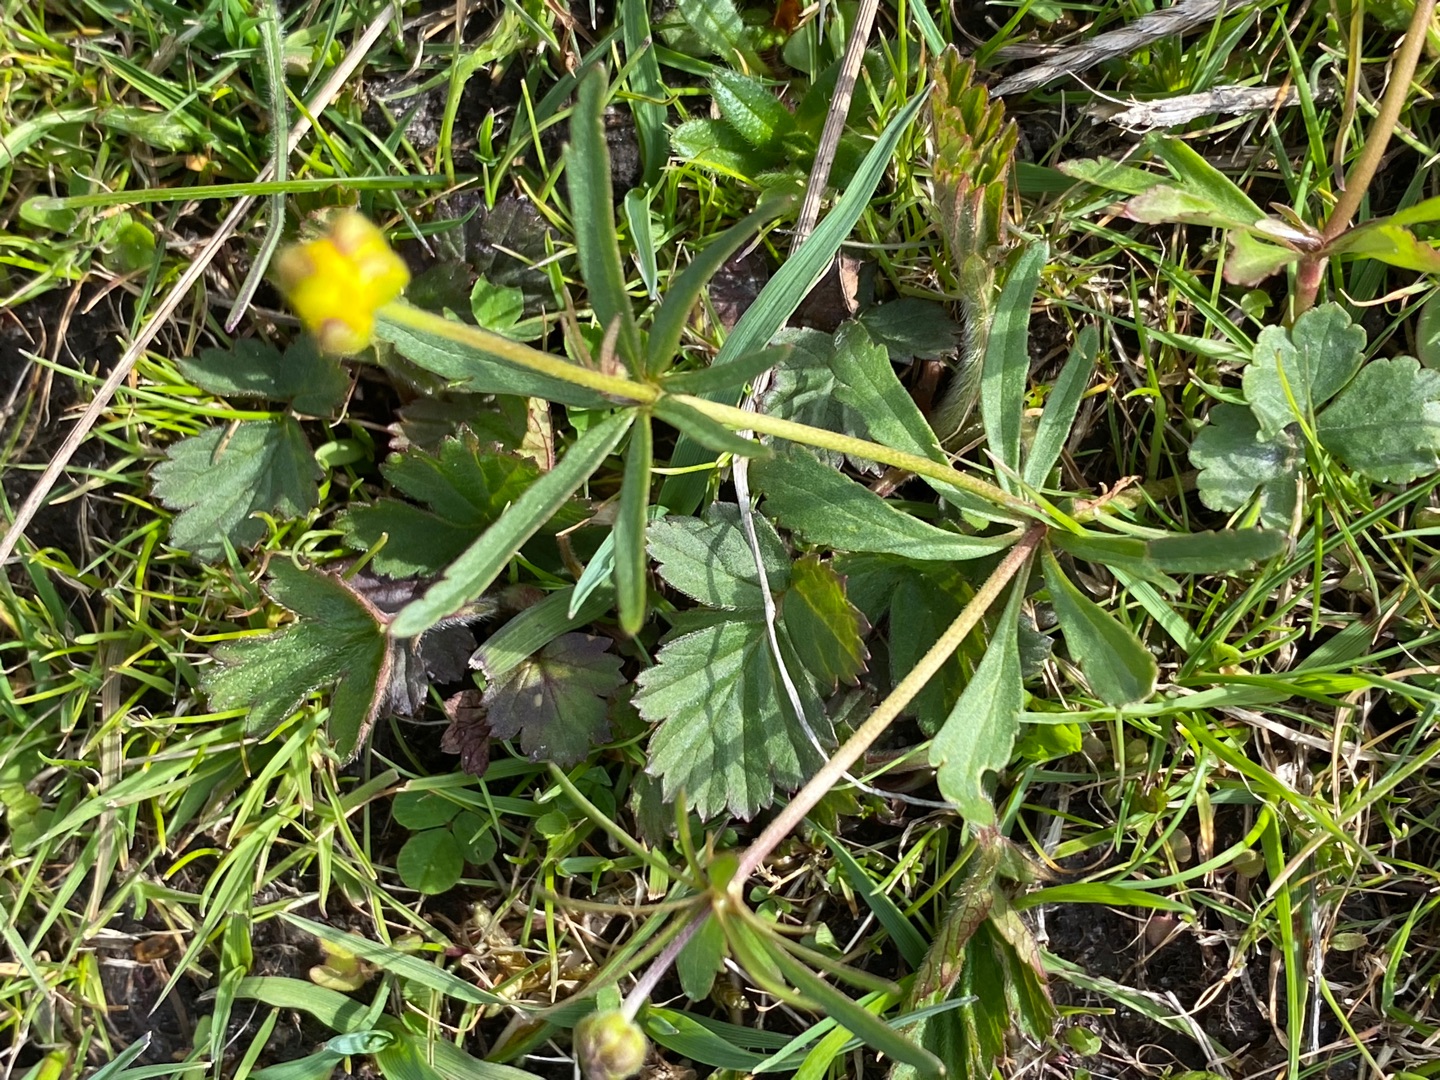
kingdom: Plantae
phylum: Tracheophyta
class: Magnoliopsida
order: Ranunculales
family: Ranunculaceae
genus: Ranunculus
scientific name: Ranunculus auricomus
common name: Nyrebladet ranunkel
